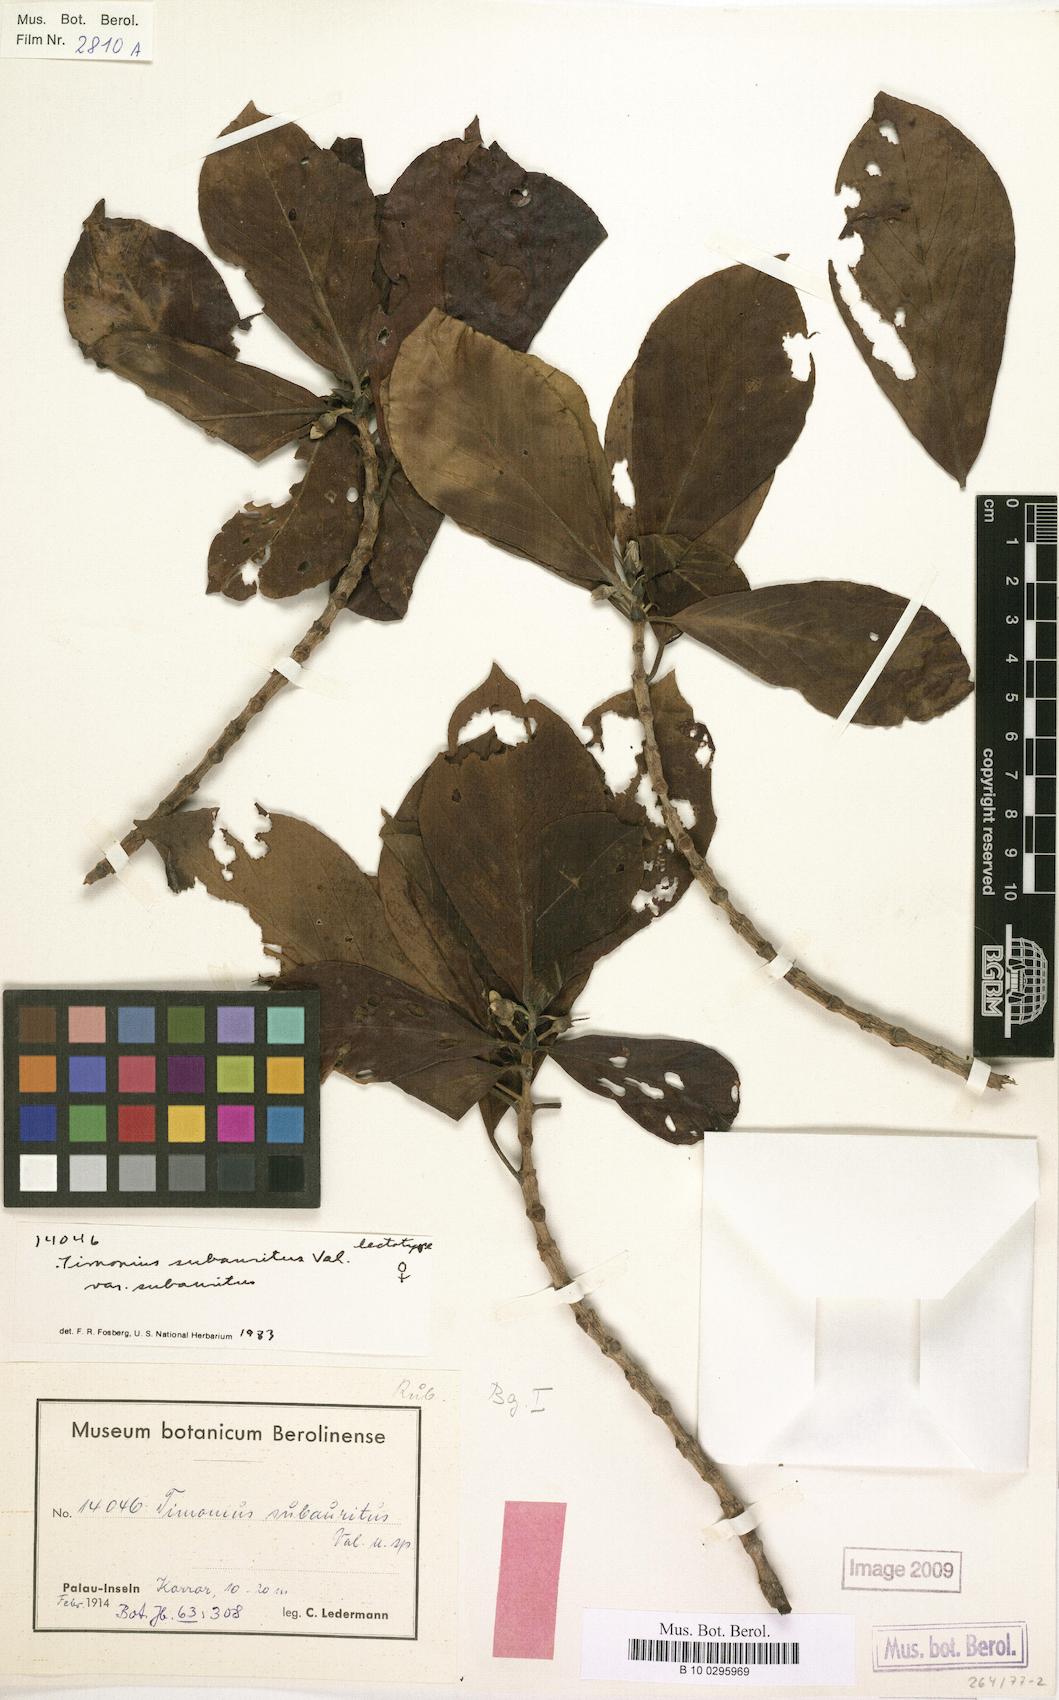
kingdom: Plantae
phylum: Tracheophyta
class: Magnoliopsida
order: Gentianales
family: Rubiaceae
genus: Timonius
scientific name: Timonius subauritus
